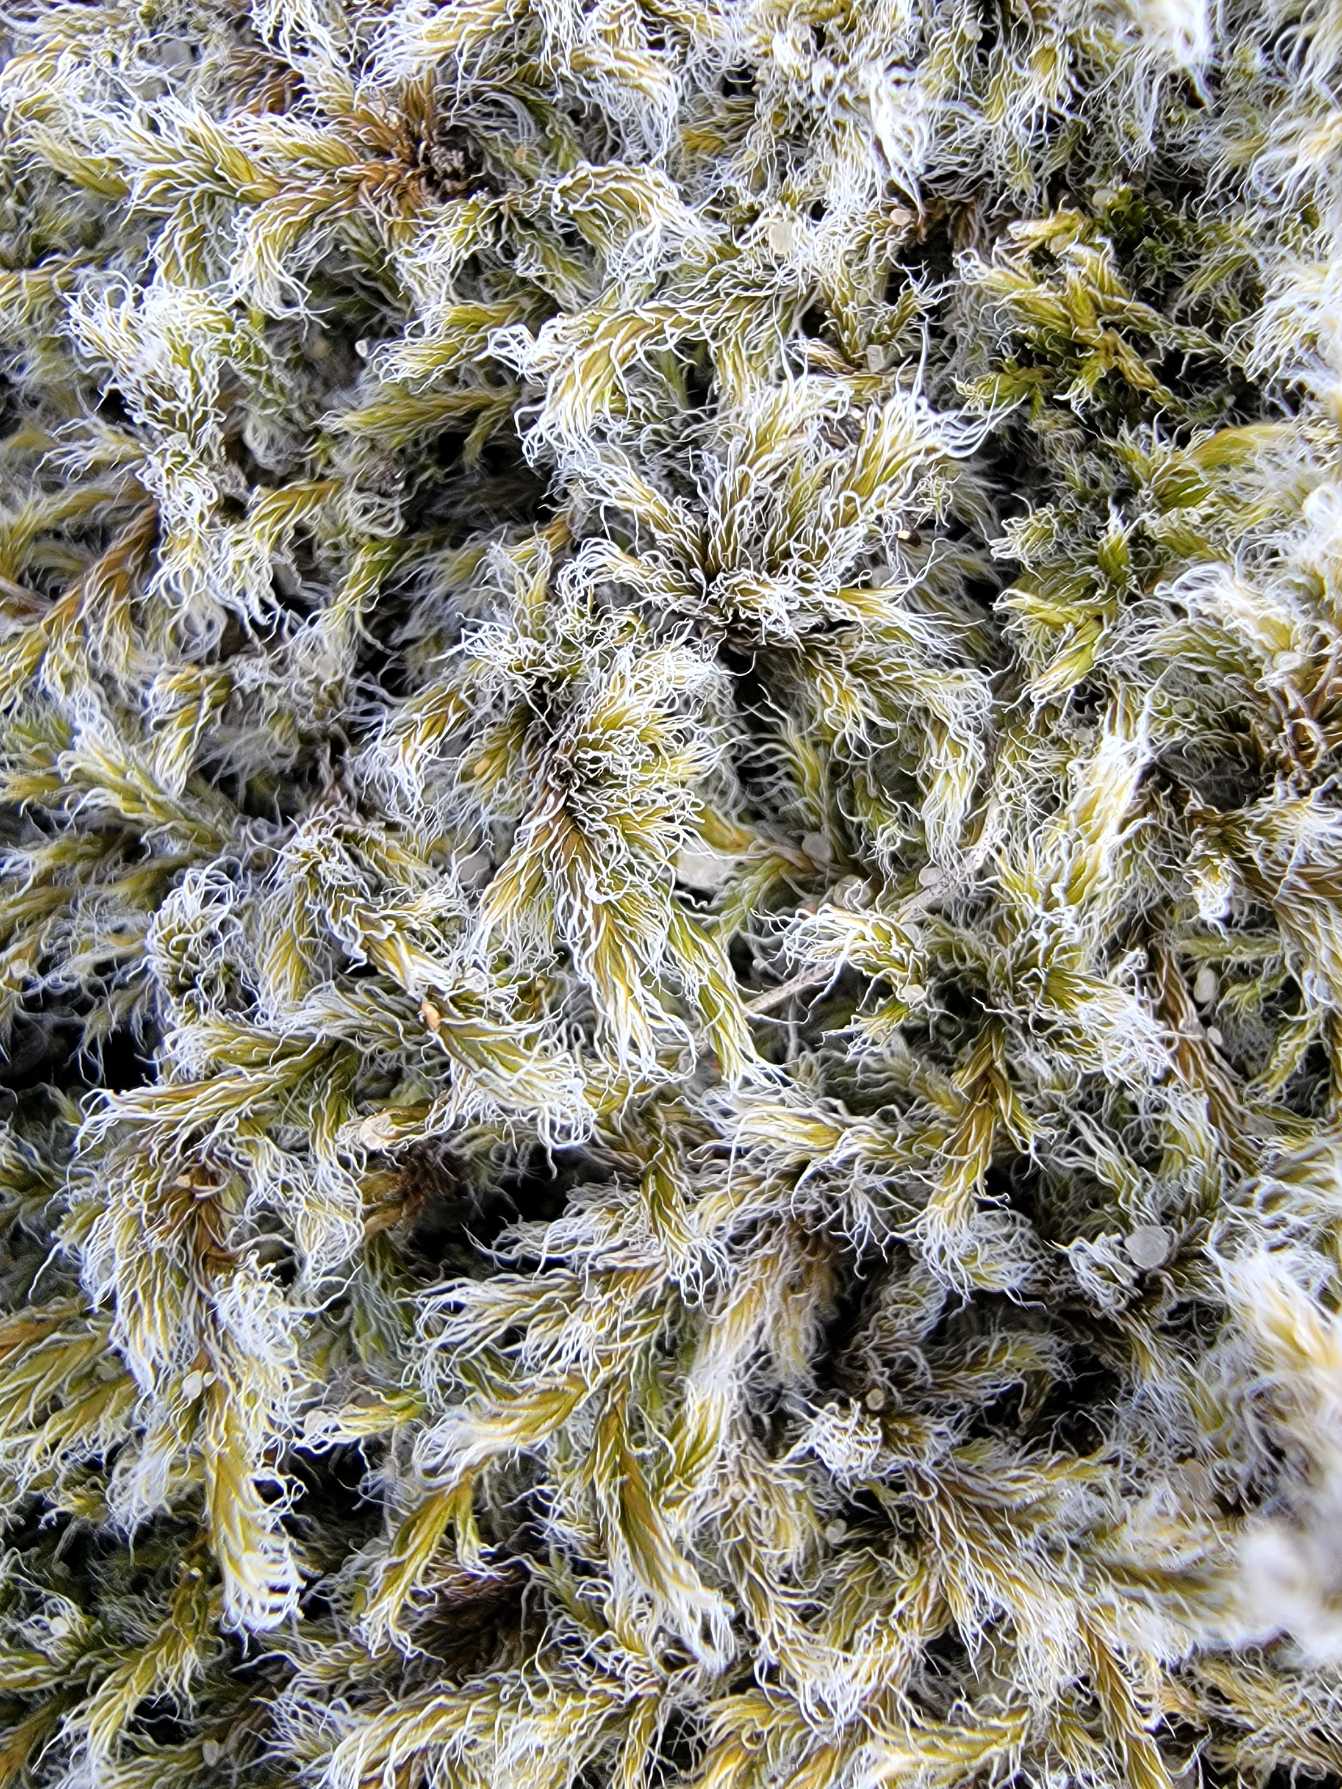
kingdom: Plantae
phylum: Bryophyta
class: Bryopsida
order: Grimmiales
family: Grimmiaceae
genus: Racomitrium
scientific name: Racomitrium lanuginosum
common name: Stor børstemos
